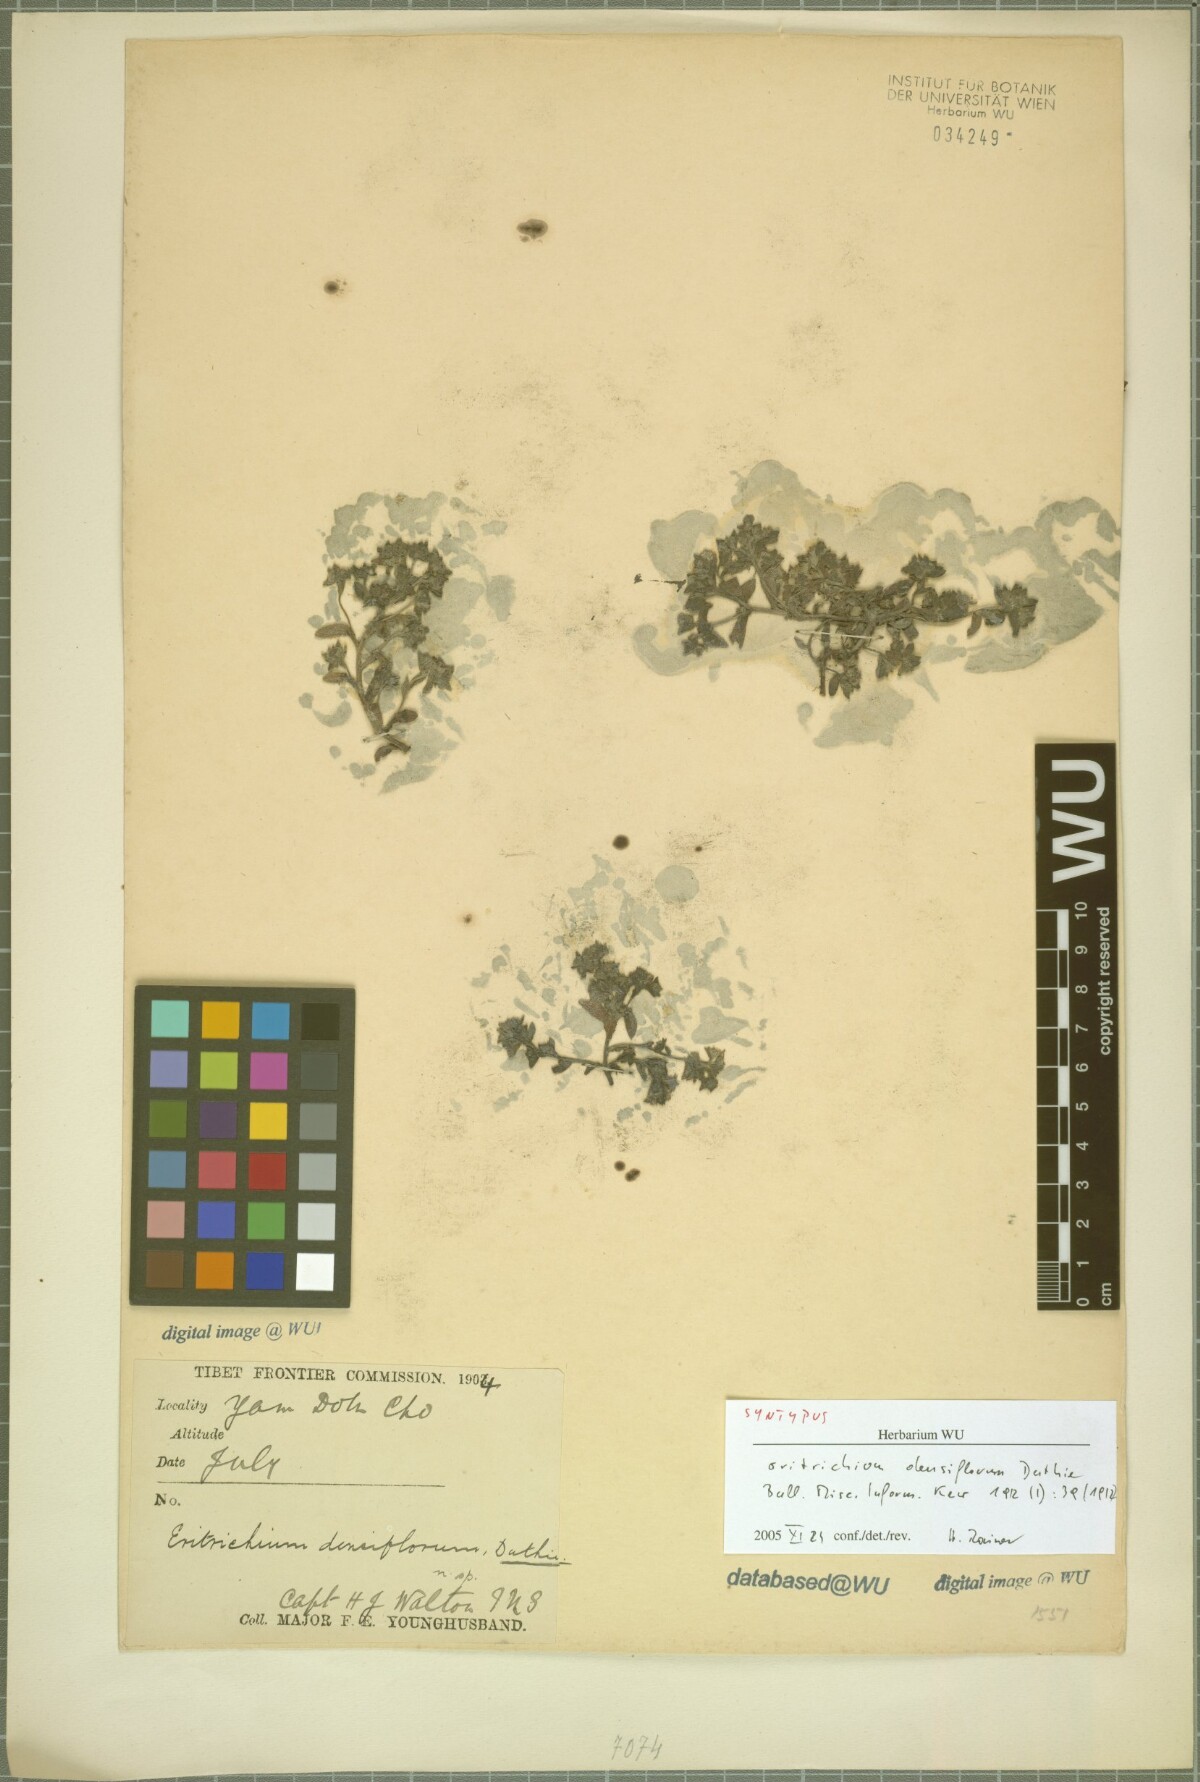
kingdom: Plantae
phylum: Tracheophyta
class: Magnoliopsida
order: Boraginales
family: Boraginaceae
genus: Lasiocaryum
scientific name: Lasiocaryum densiflorum
